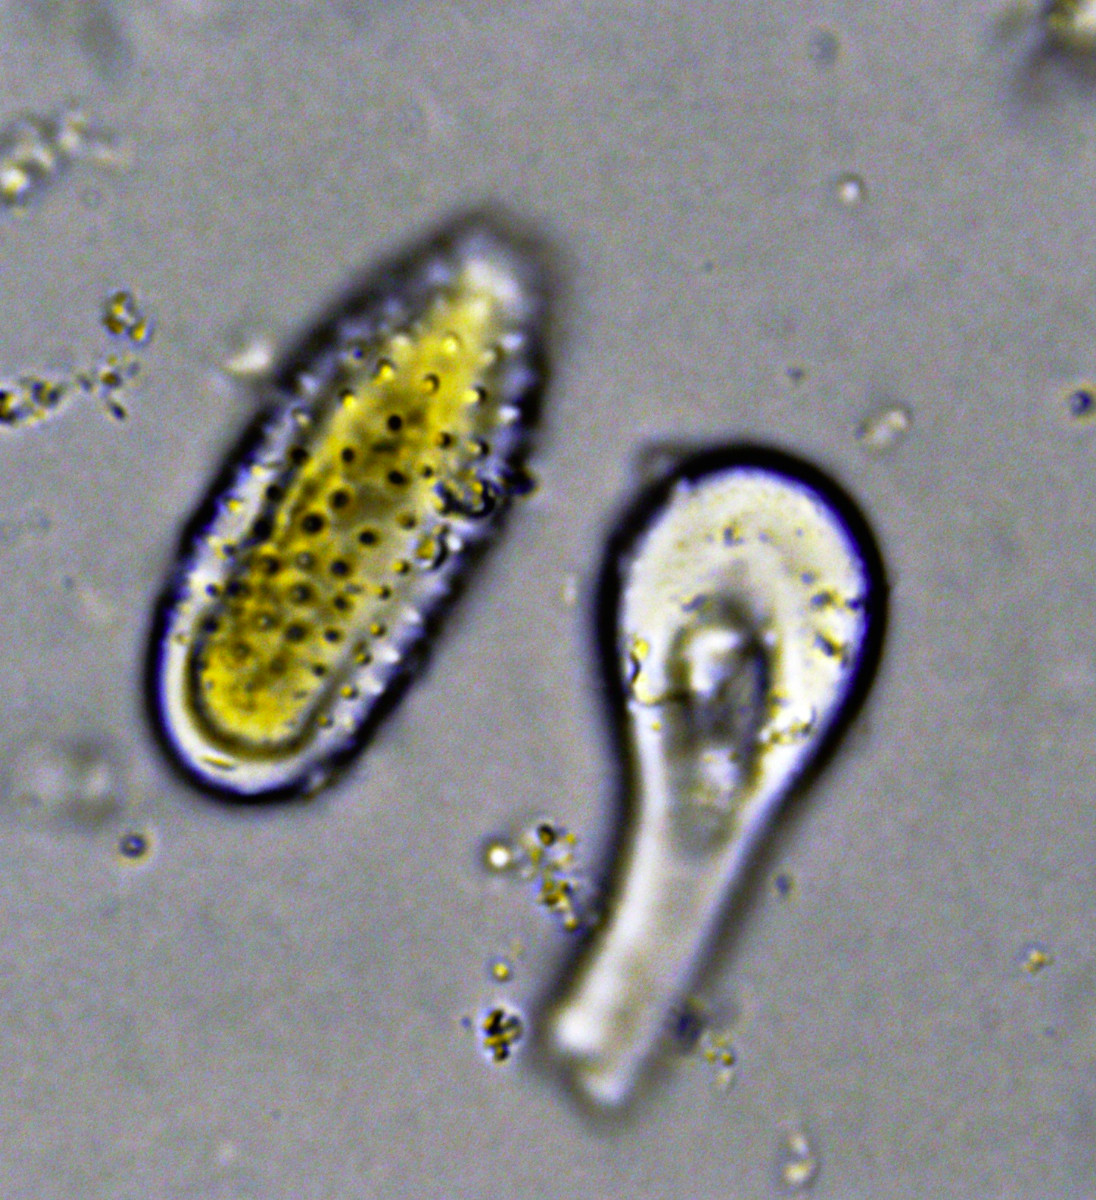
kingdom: Fungi
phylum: Basidiomycota
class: Pucciniomycetes
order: Pucciniales
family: Melampsoraceae
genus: Melampsora
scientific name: Melampsora laricis-populina
